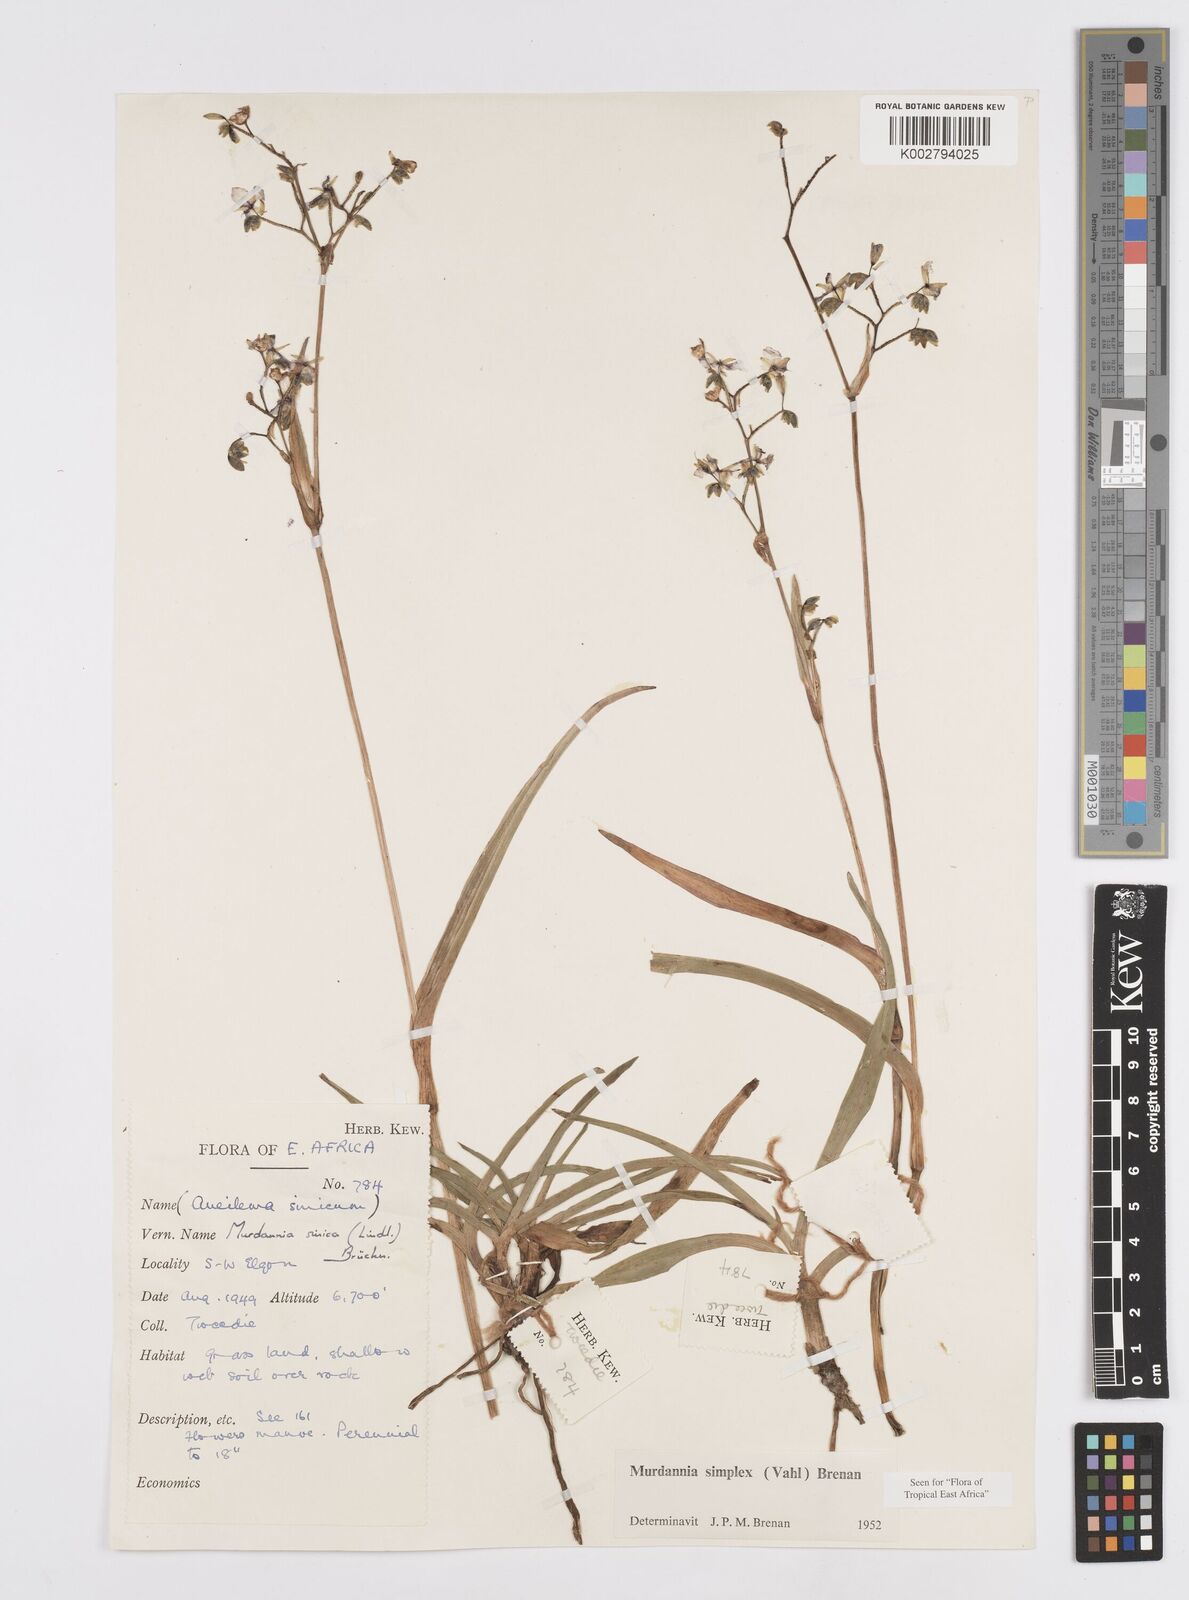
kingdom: Plantae
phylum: Tracheophyta
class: Liliopsida
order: Commelinales
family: Commelinaceae
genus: Murdannia
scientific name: Murdannia simplex
